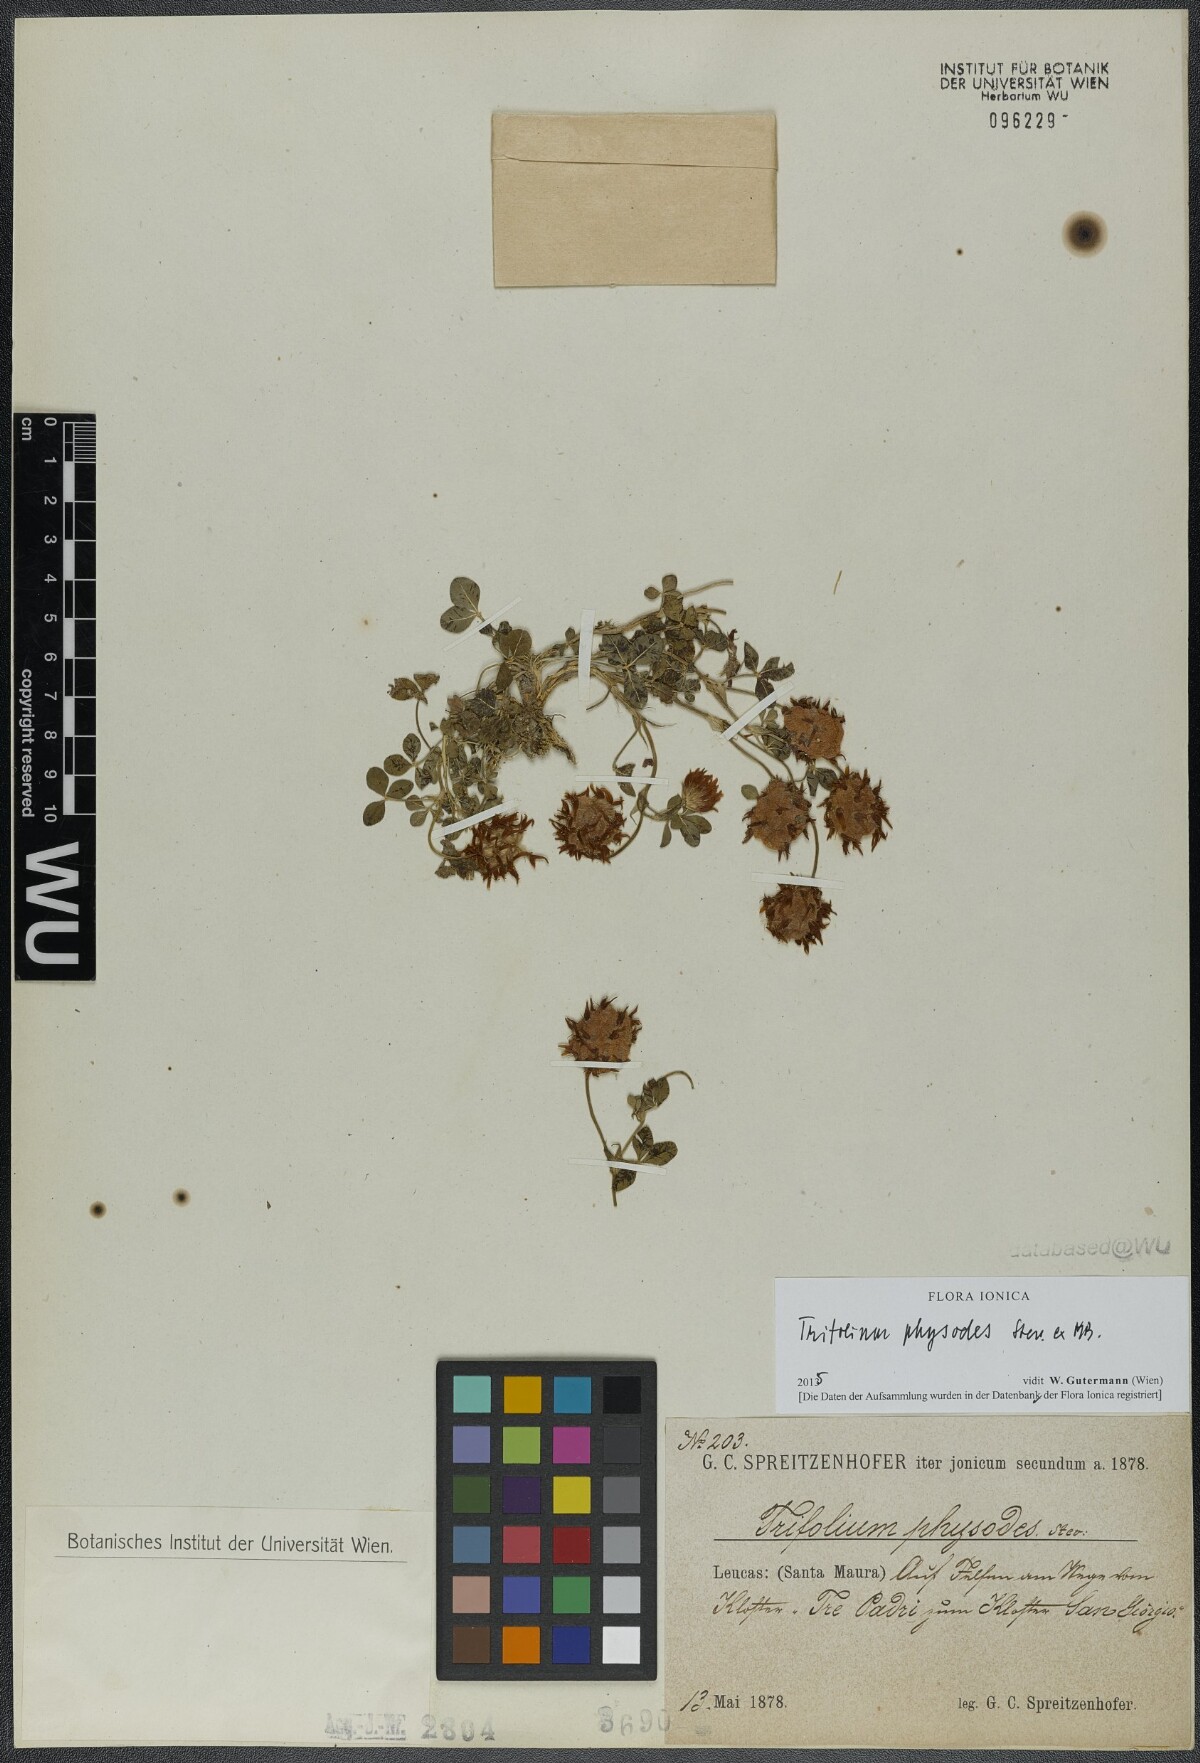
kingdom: Plantae
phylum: Tracheophyta
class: Magnoliopsida
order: Fabales
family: Fabaceae
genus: Trifolium
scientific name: Trifolium physodes
